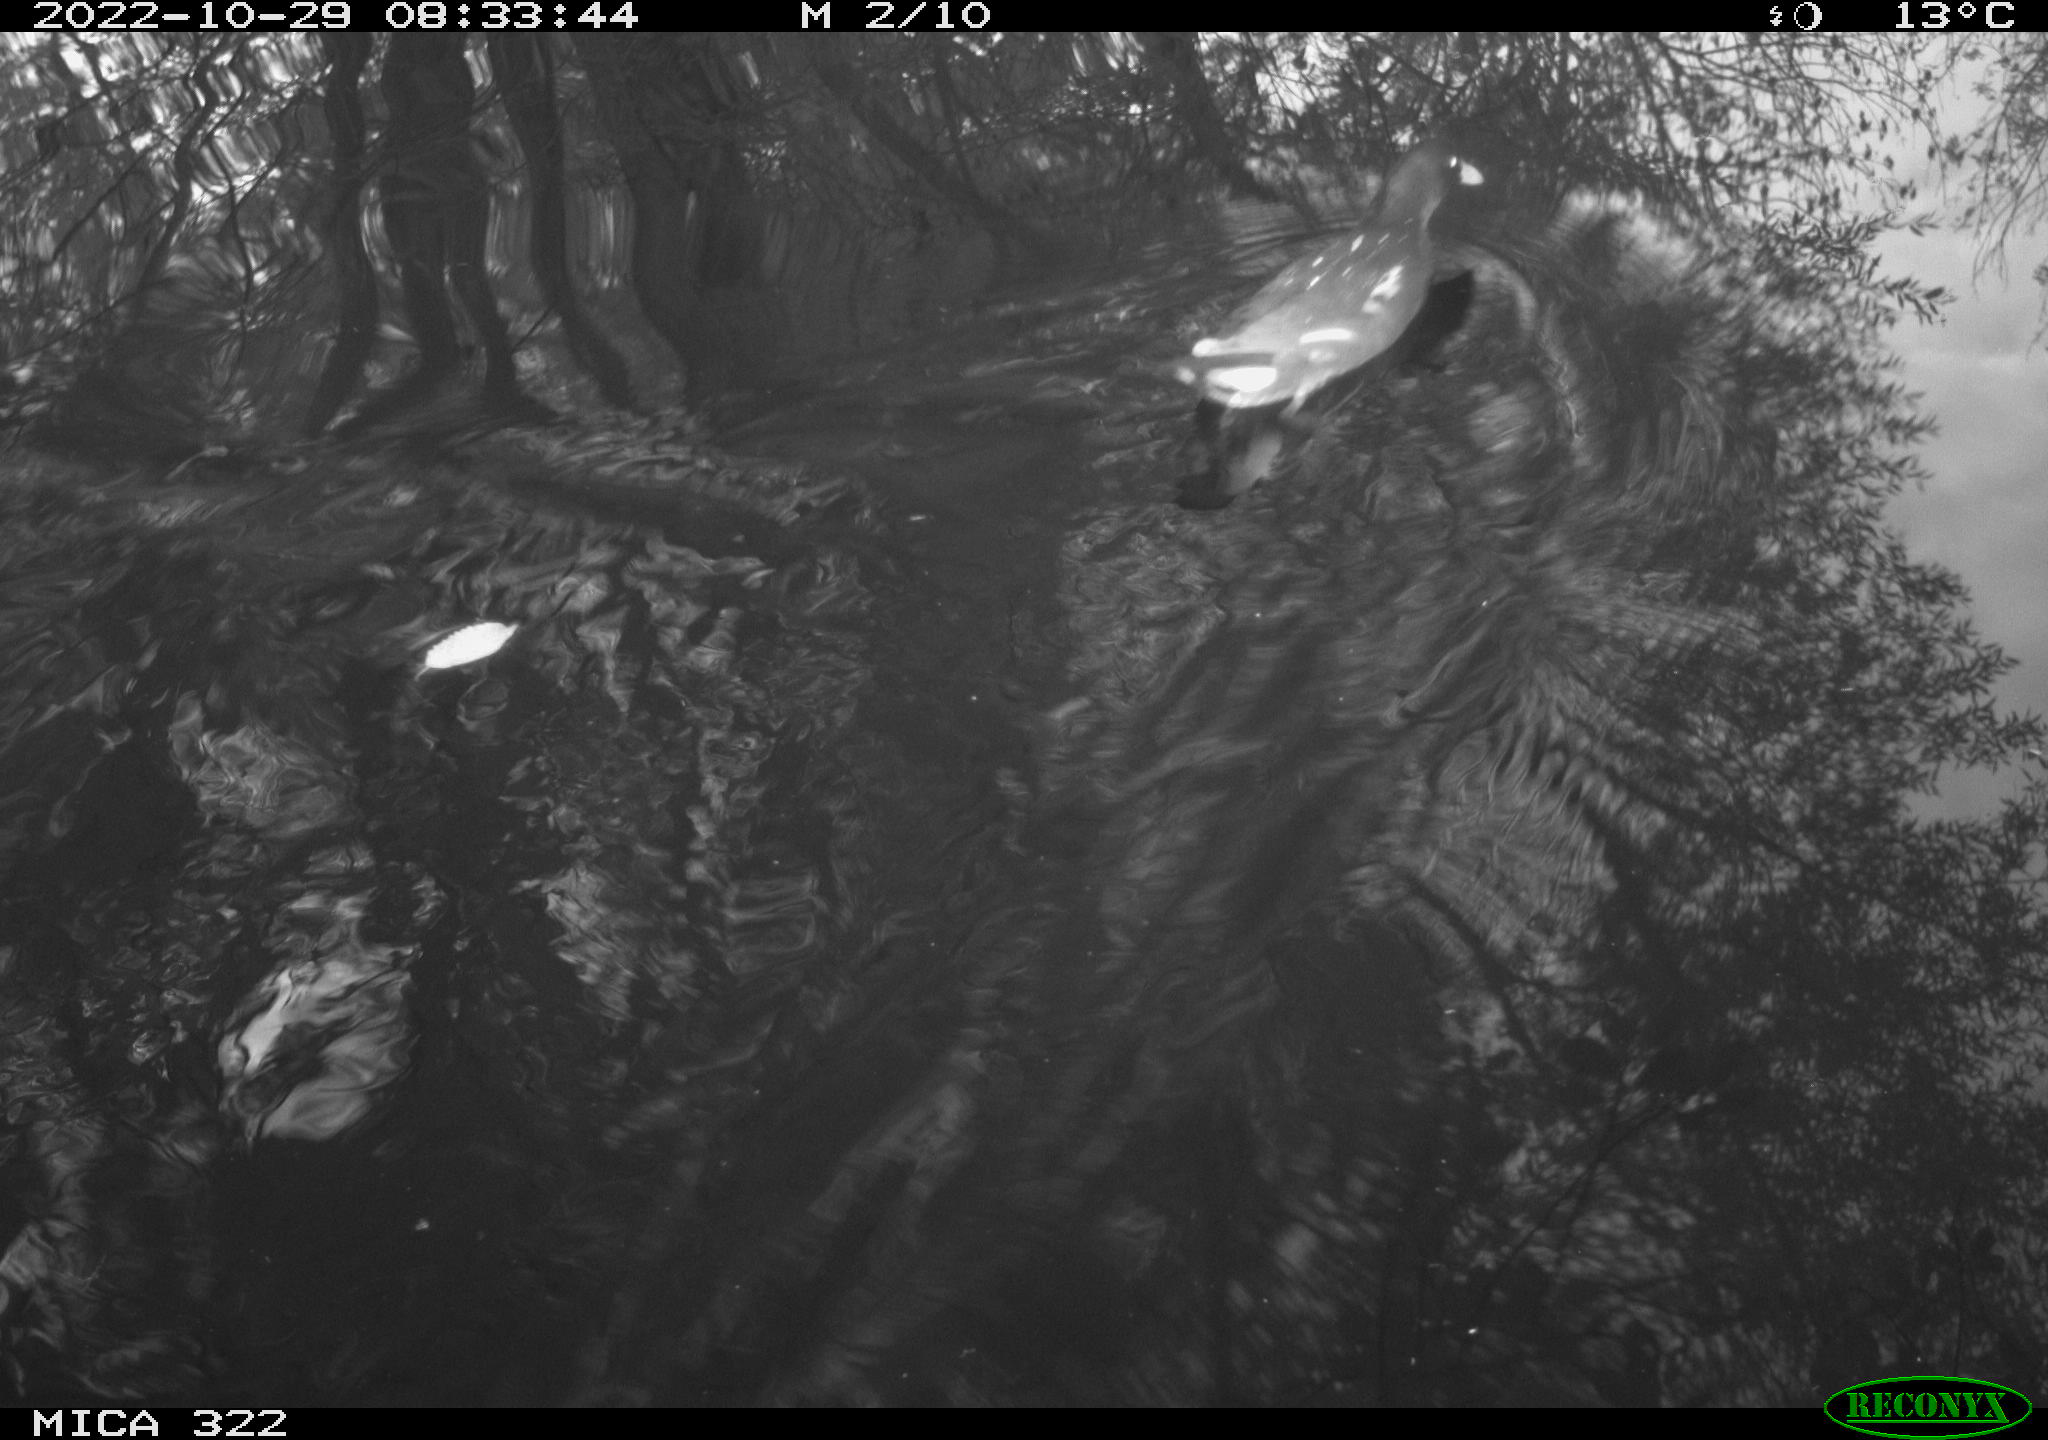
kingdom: Animalia
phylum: Chordata
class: Aves
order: Gruiformes
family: Rallidae
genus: Gallinula
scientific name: Gallinula chloropus
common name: Common moorhen
